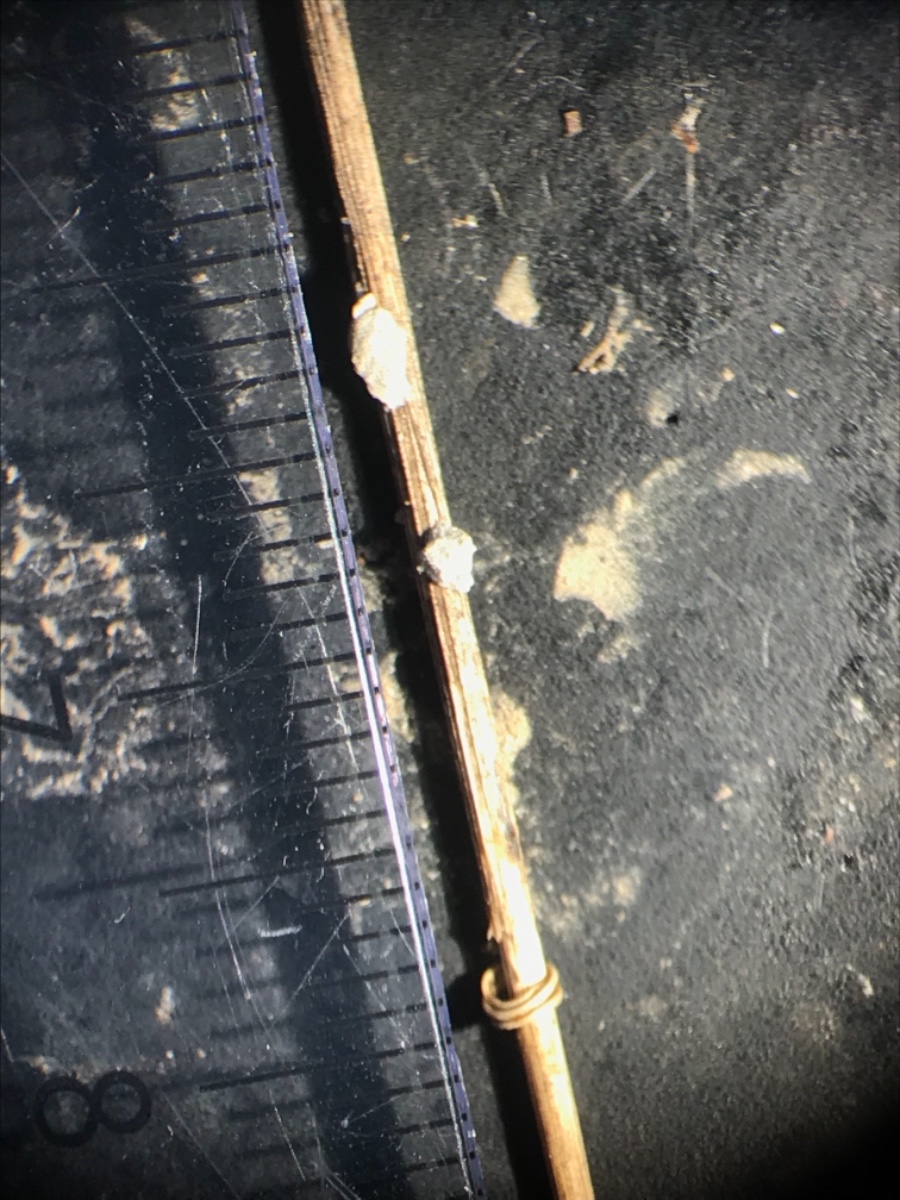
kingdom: Protozoa
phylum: Mycetozoa
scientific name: Mycetozoa
